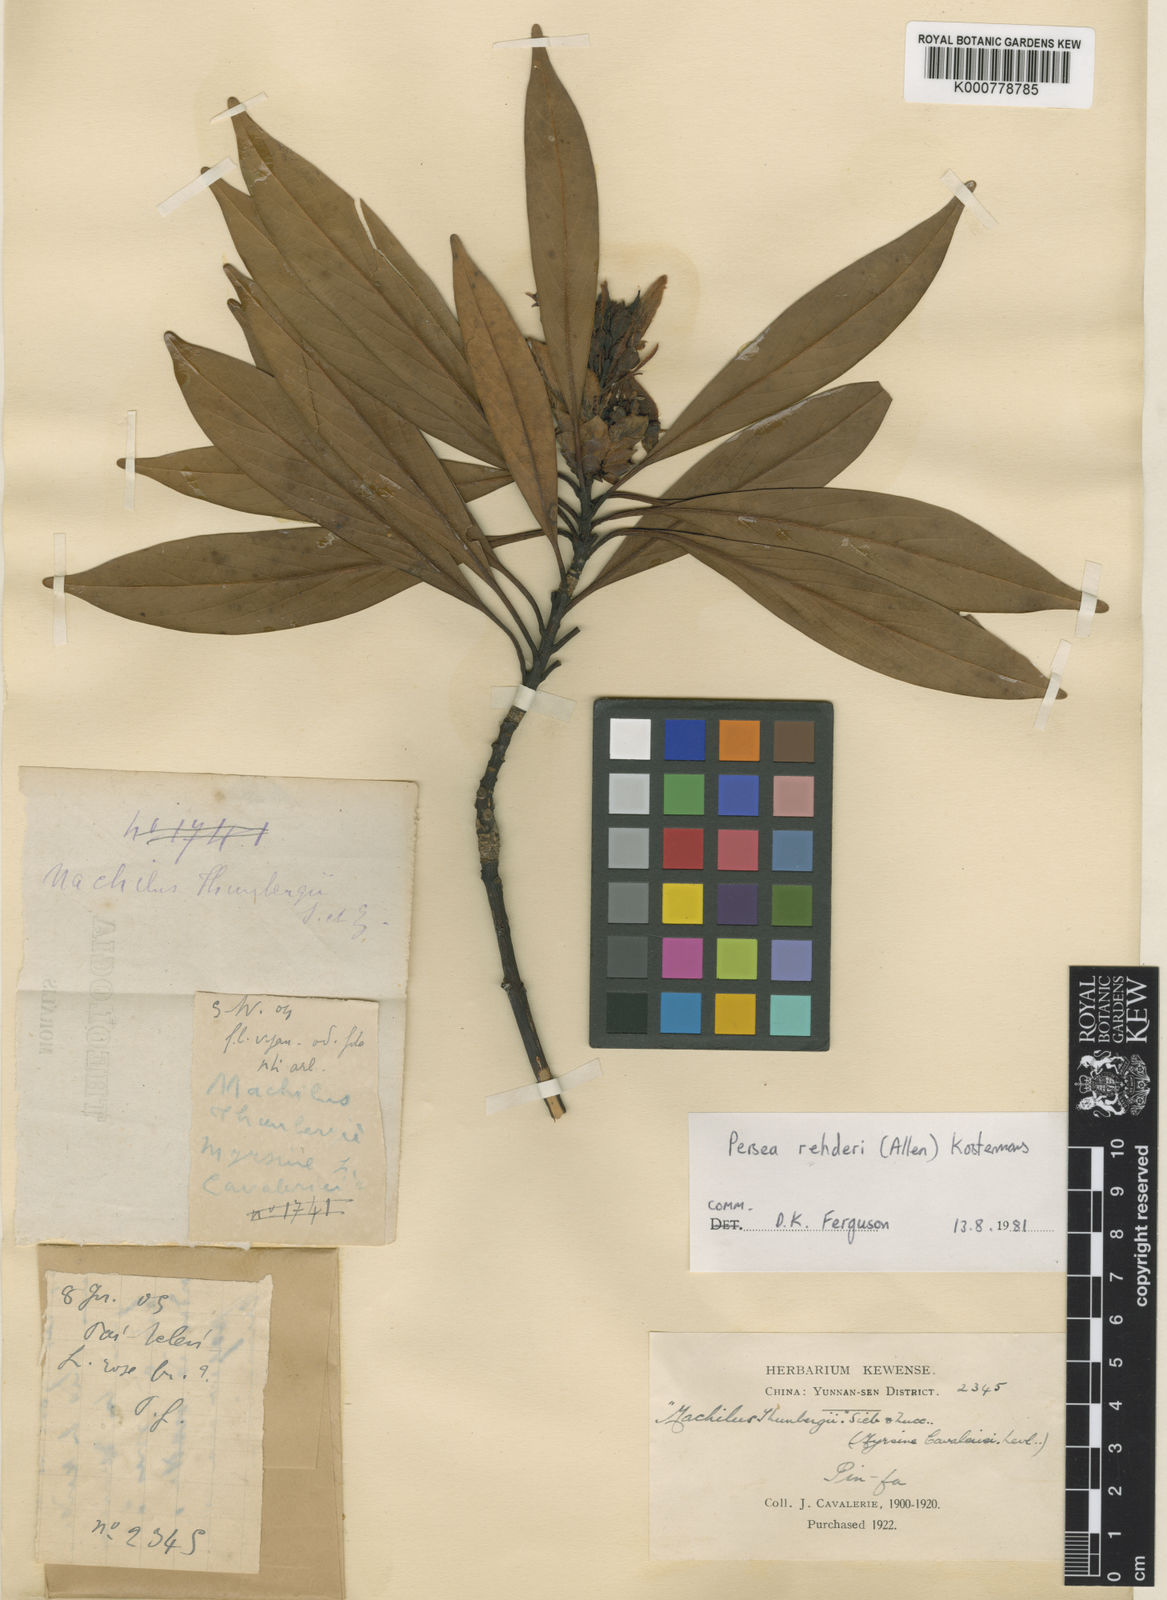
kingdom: Plantae
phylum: Tracheophyta
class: Magnoliopsida
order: Laurales
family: Lauraceae
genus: Machilus
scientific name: Machilus rehderi
